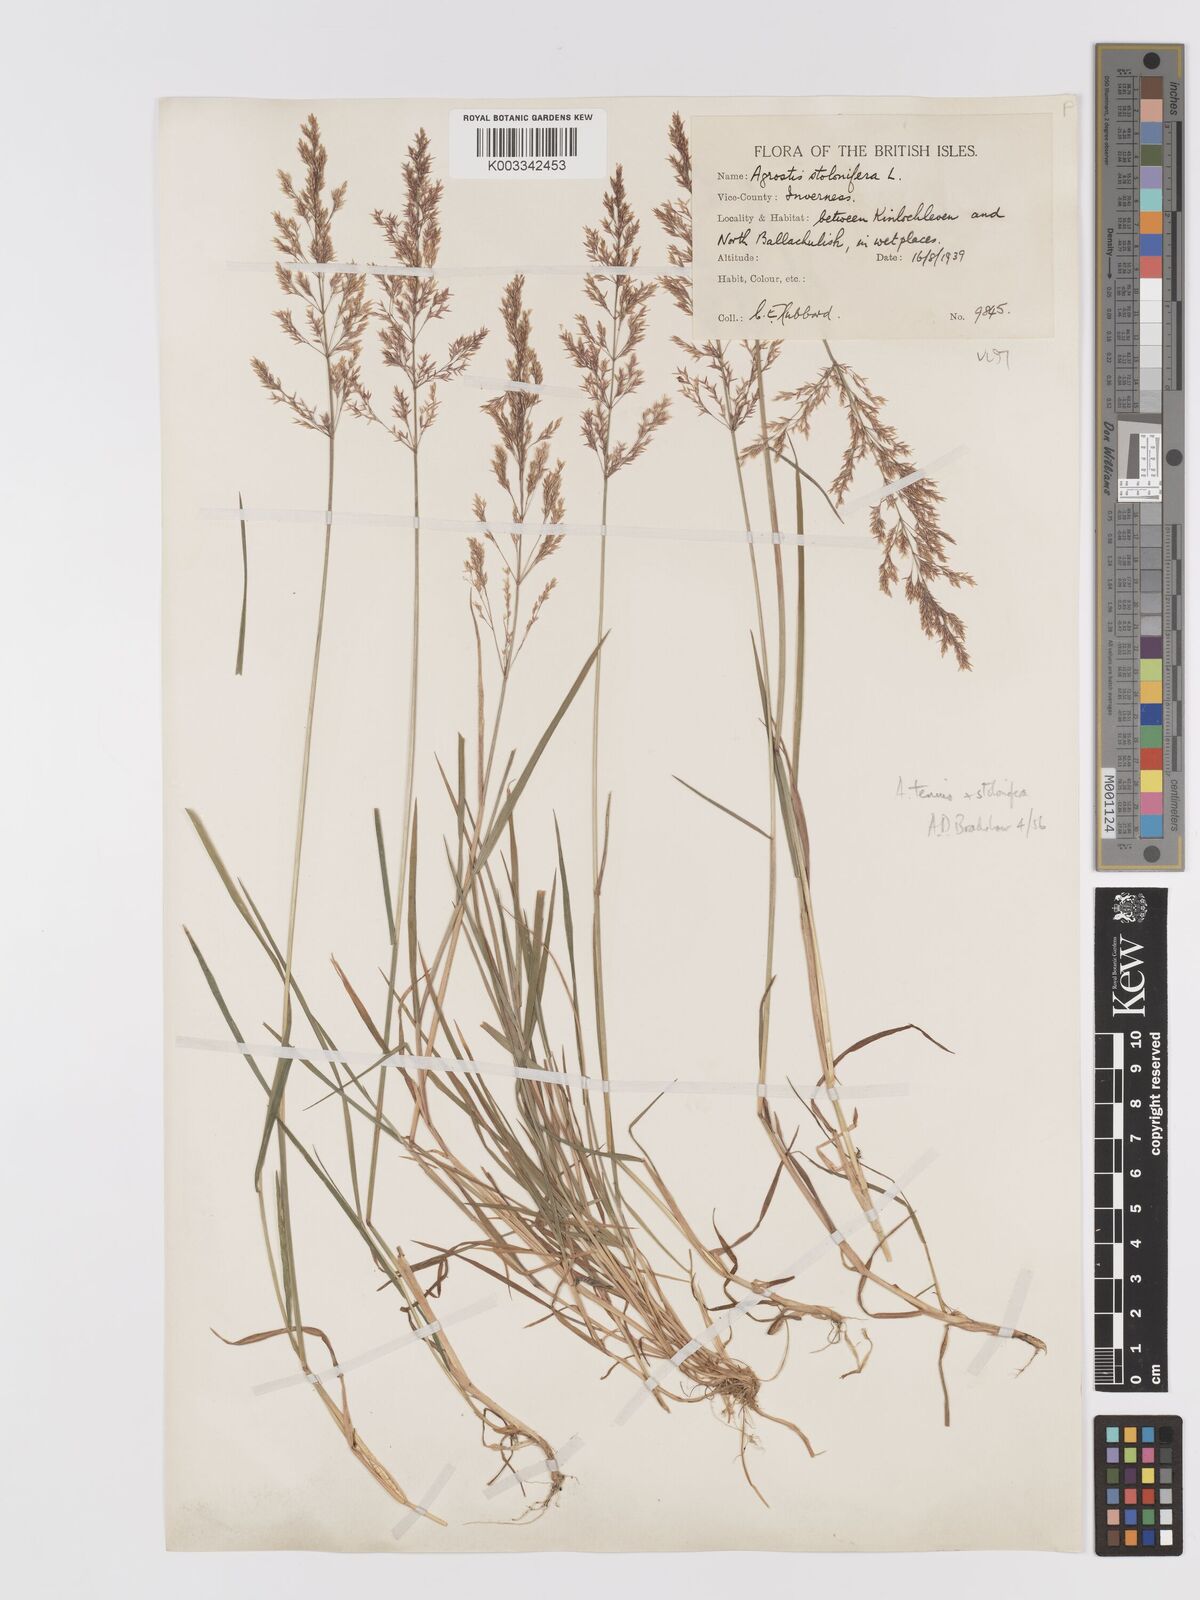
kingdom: Plantae
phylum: Tracheophyta
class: Liliopsida
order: Poales
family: Poaceae
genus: Agrostis
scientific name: Agrostis capillaris
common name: Colonial bentgrass
